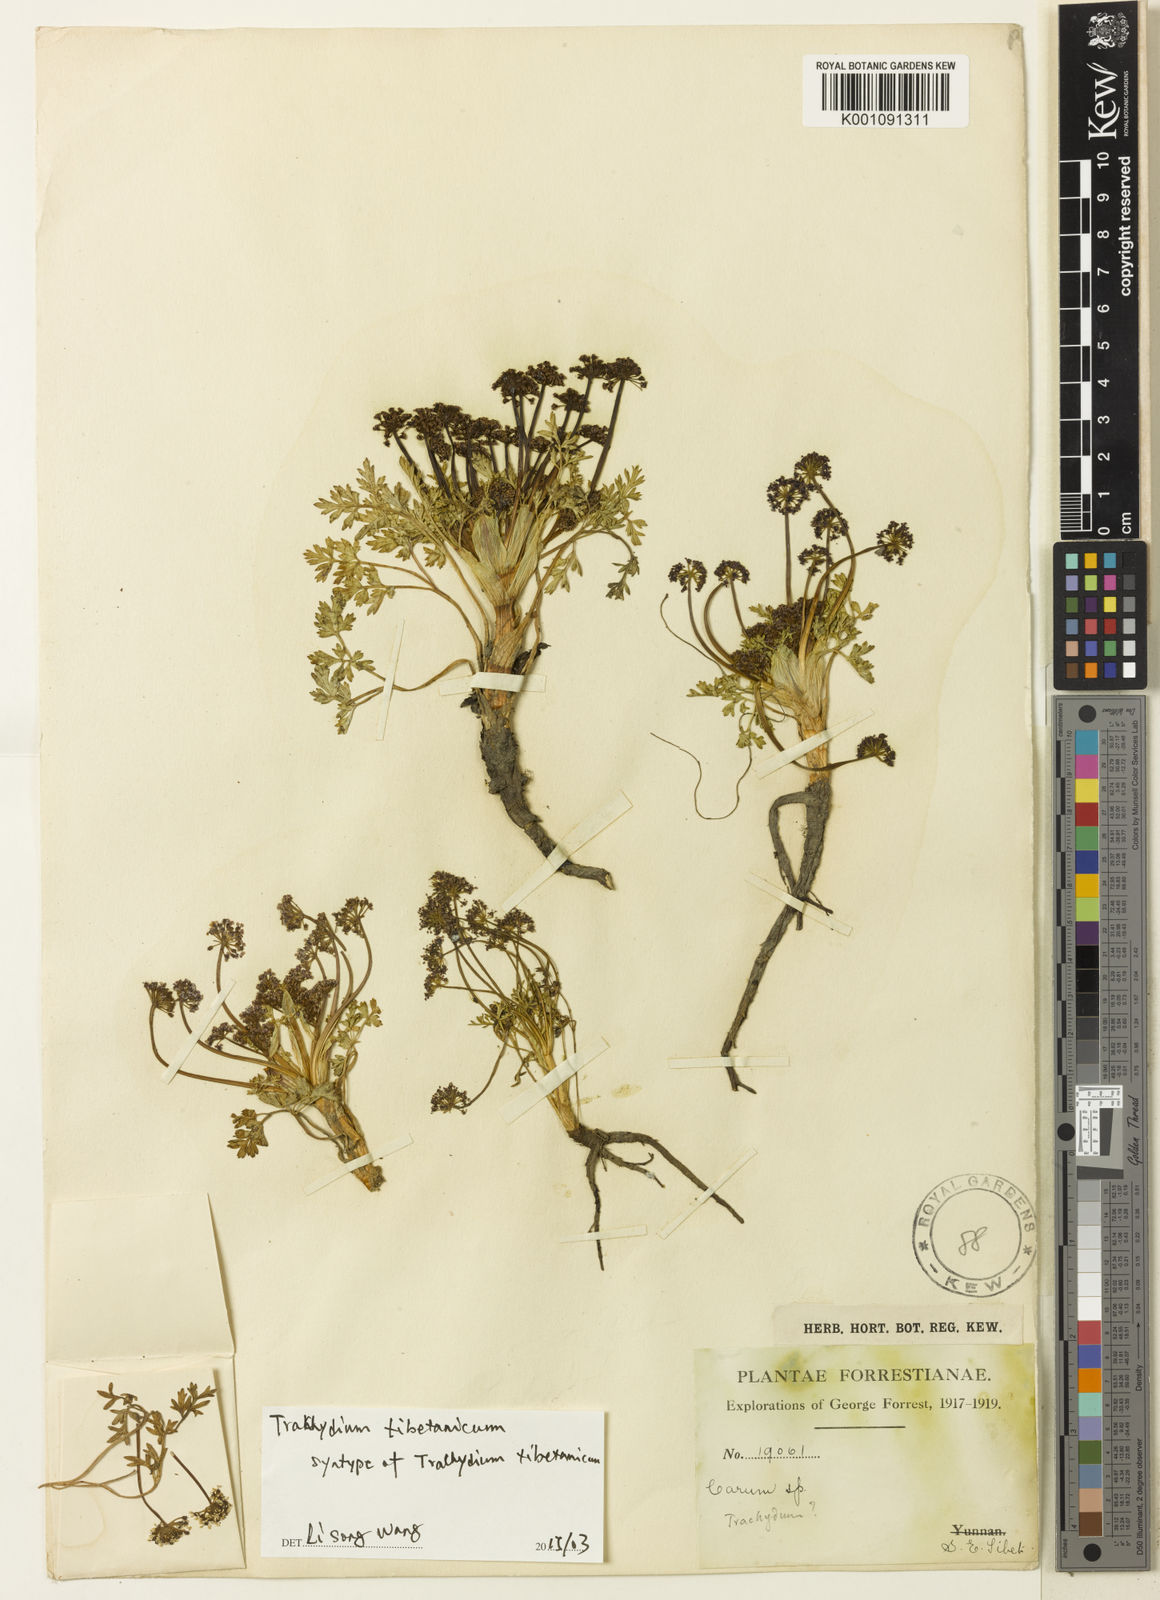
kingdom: Plantae
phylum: Tracheophyta
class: Magnoliopsida
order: Apiales
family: Apiaceae
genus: Trachydium
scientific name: Trachydium souliei
